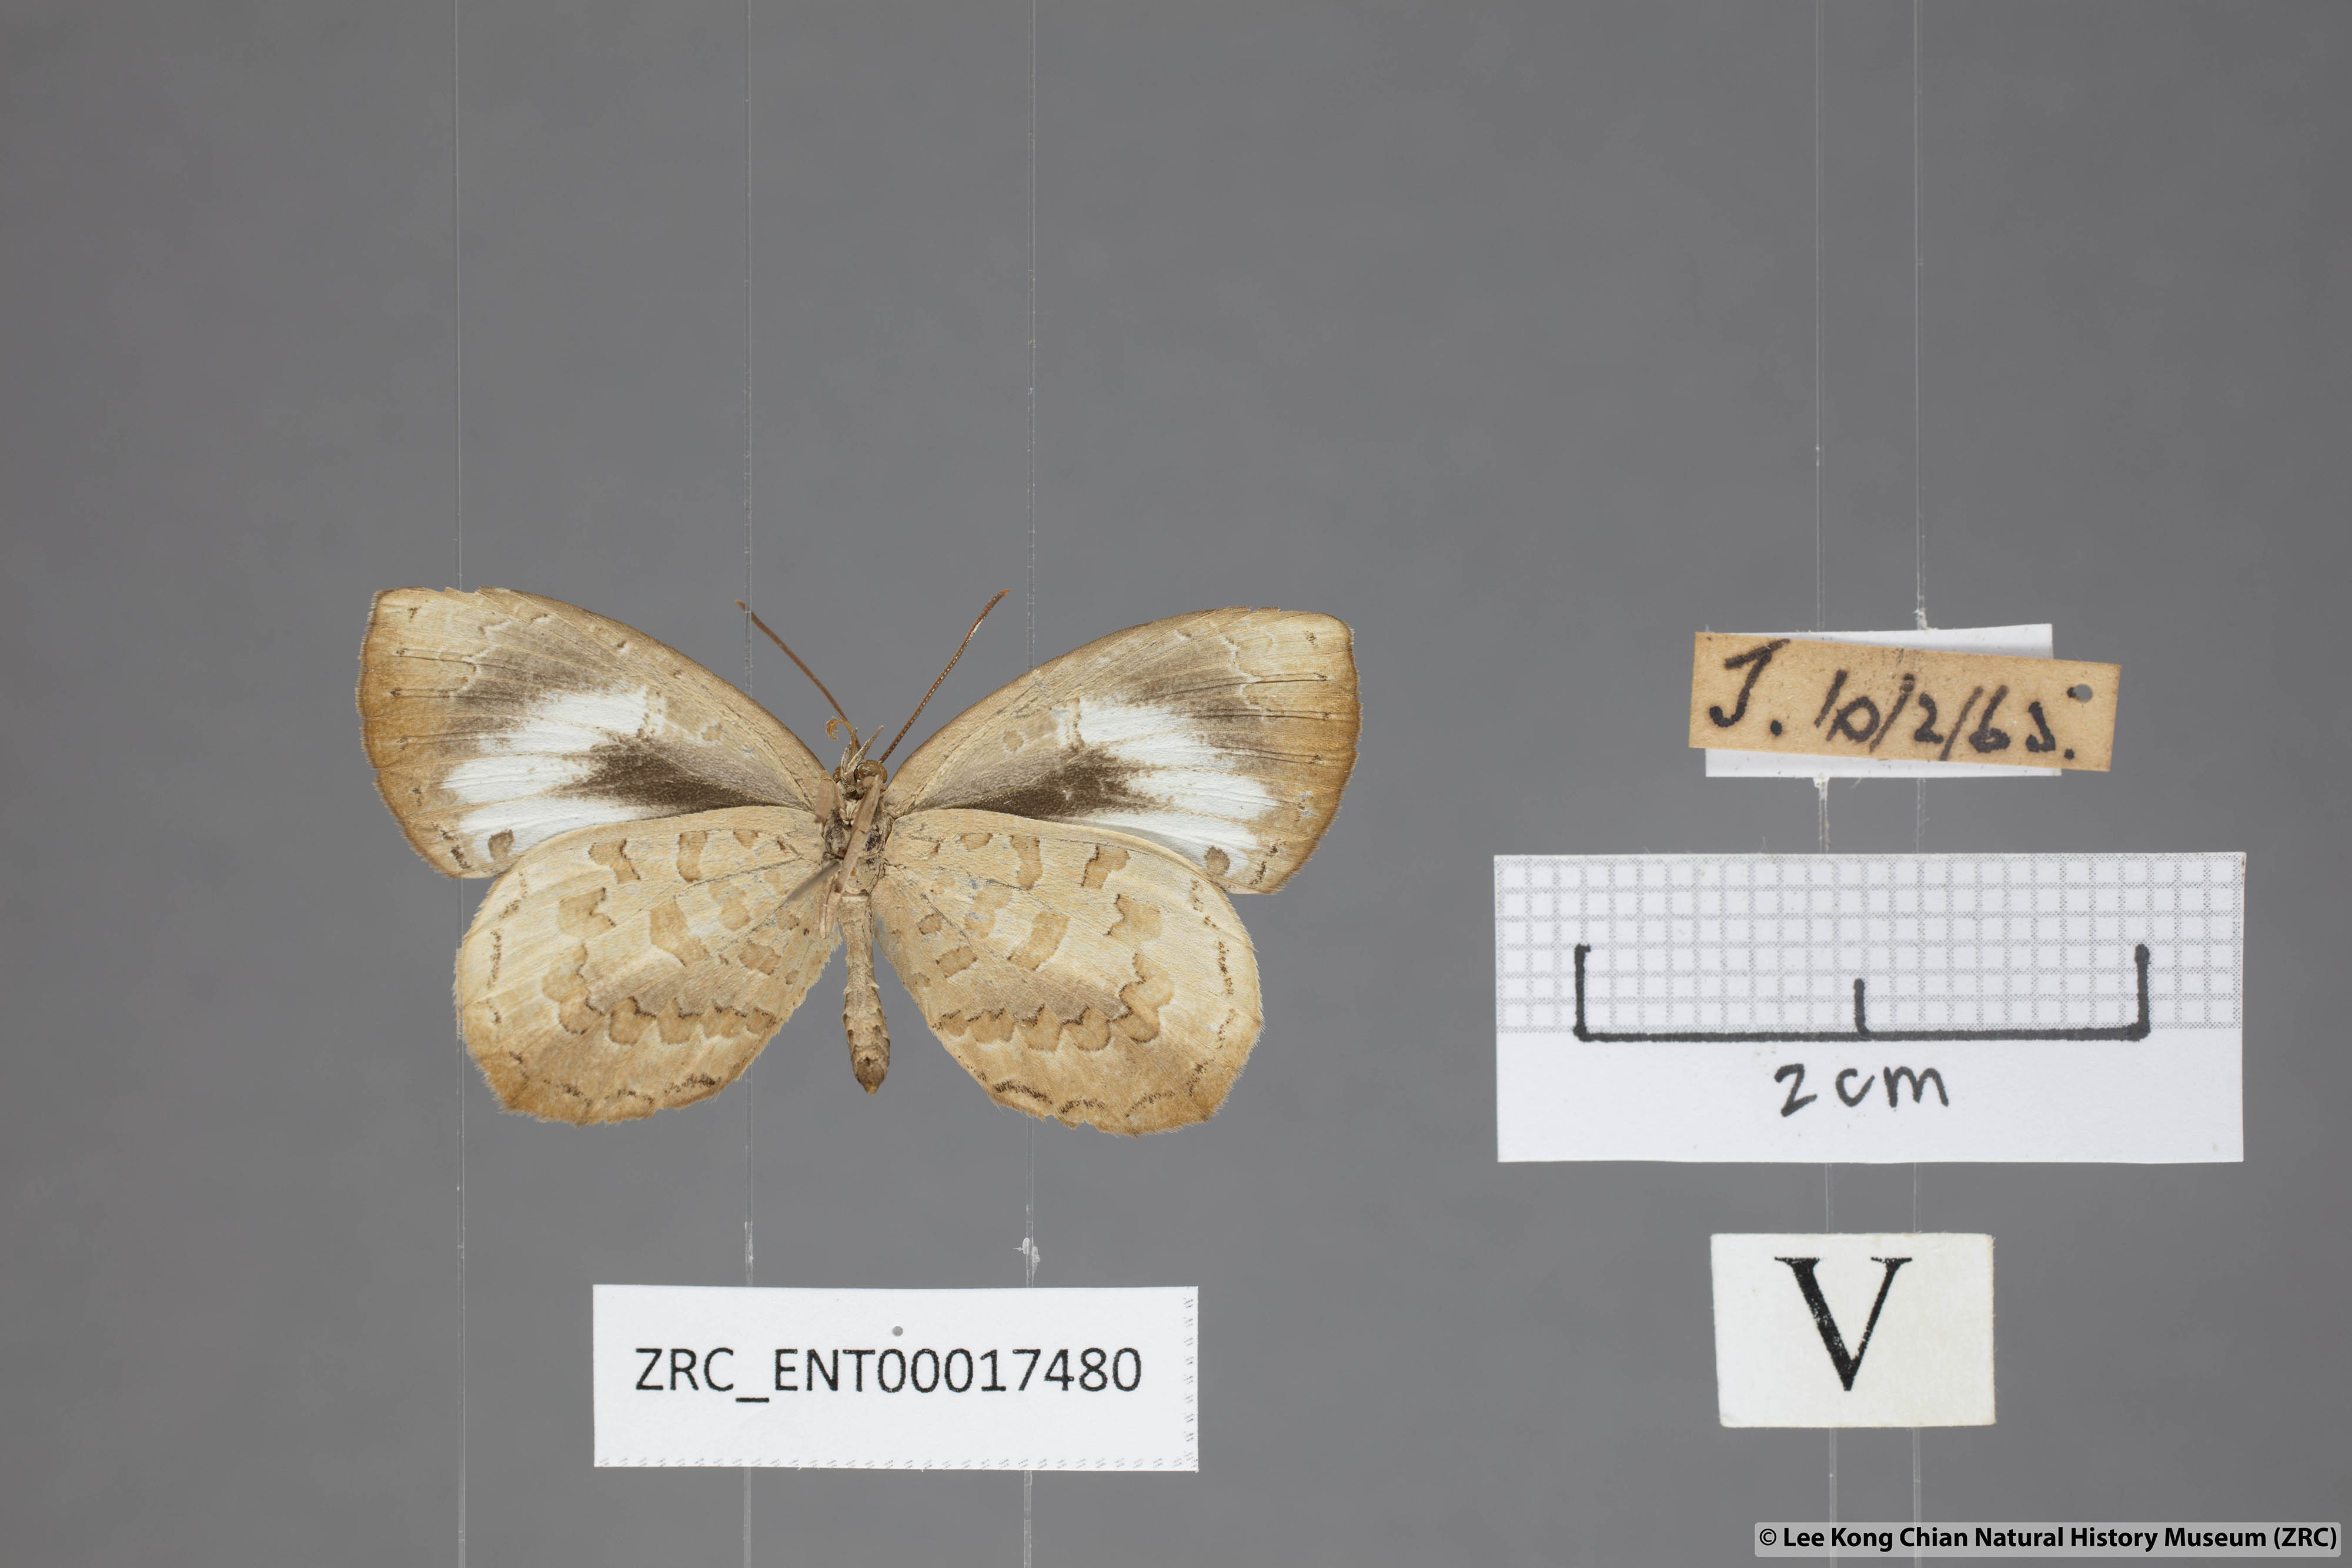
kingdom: Animalia
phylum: Arthropoda
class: Insecta
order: Lepidoptera
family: Lycaenidae
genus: Miletus
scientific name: Miletus symethus
